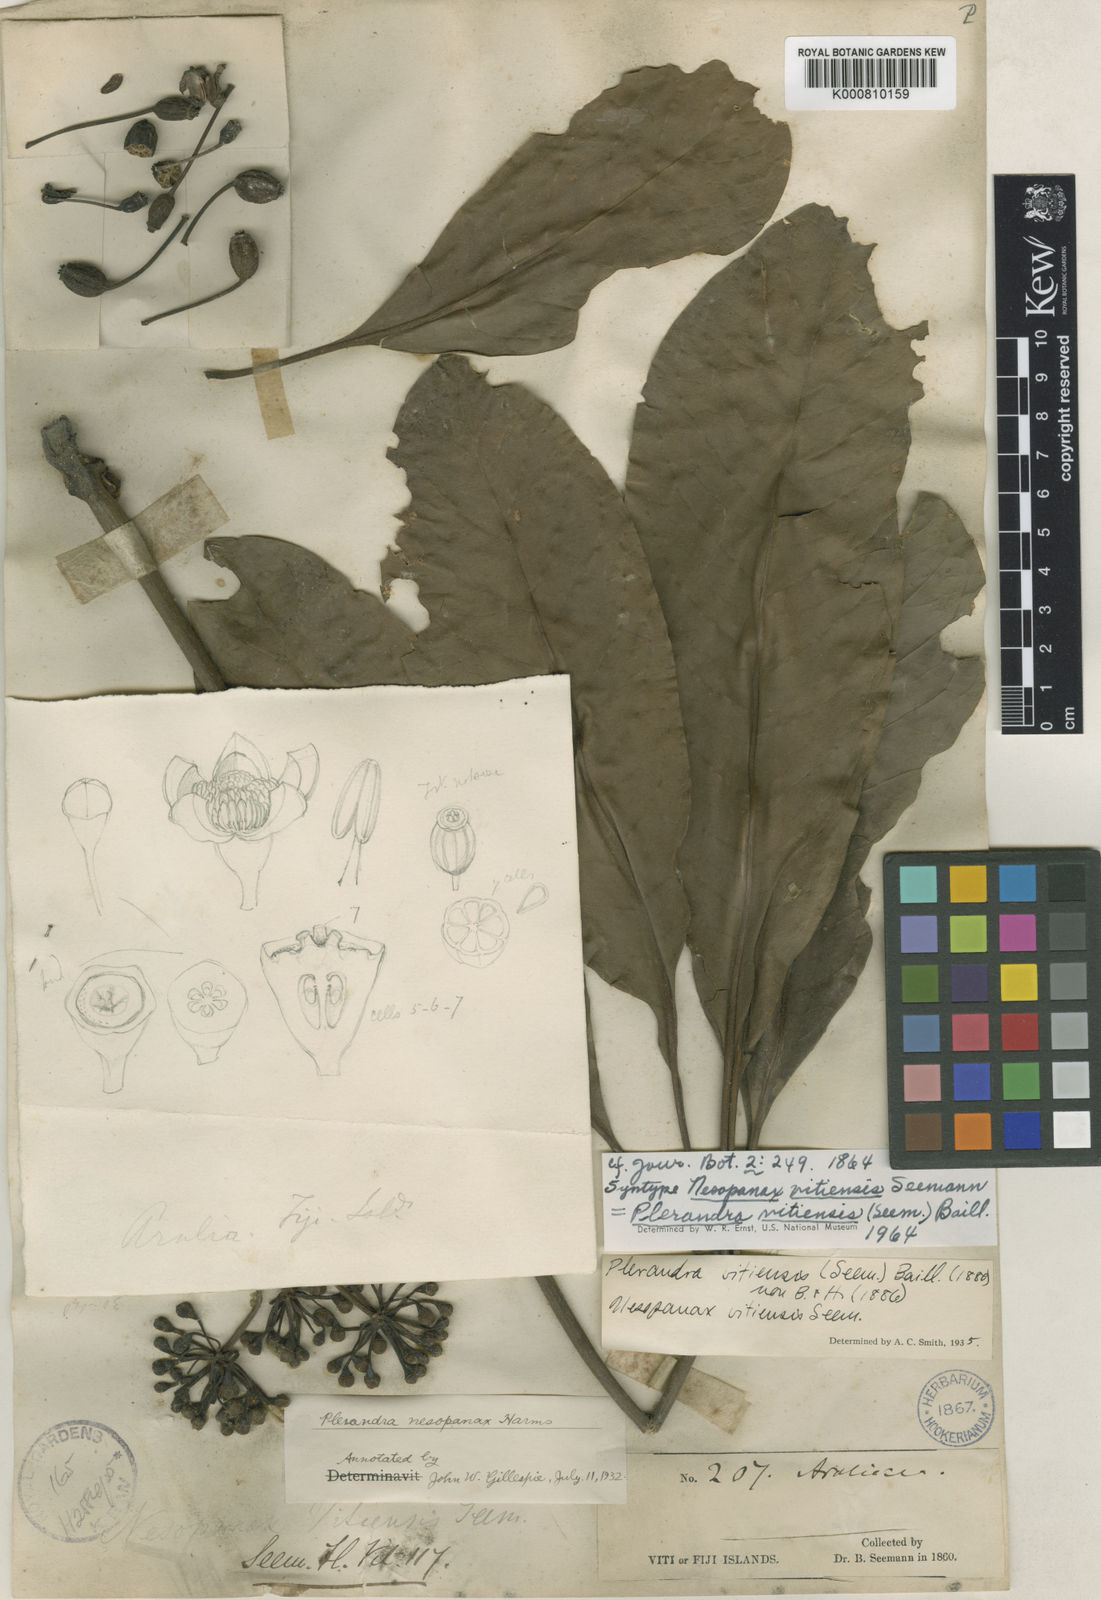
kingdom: Plantae
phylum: Tracheophyta
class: Magnoliopsida
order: Apiales
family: Araliaceae
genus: Schefflera
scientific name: Schefflera vitiensis
